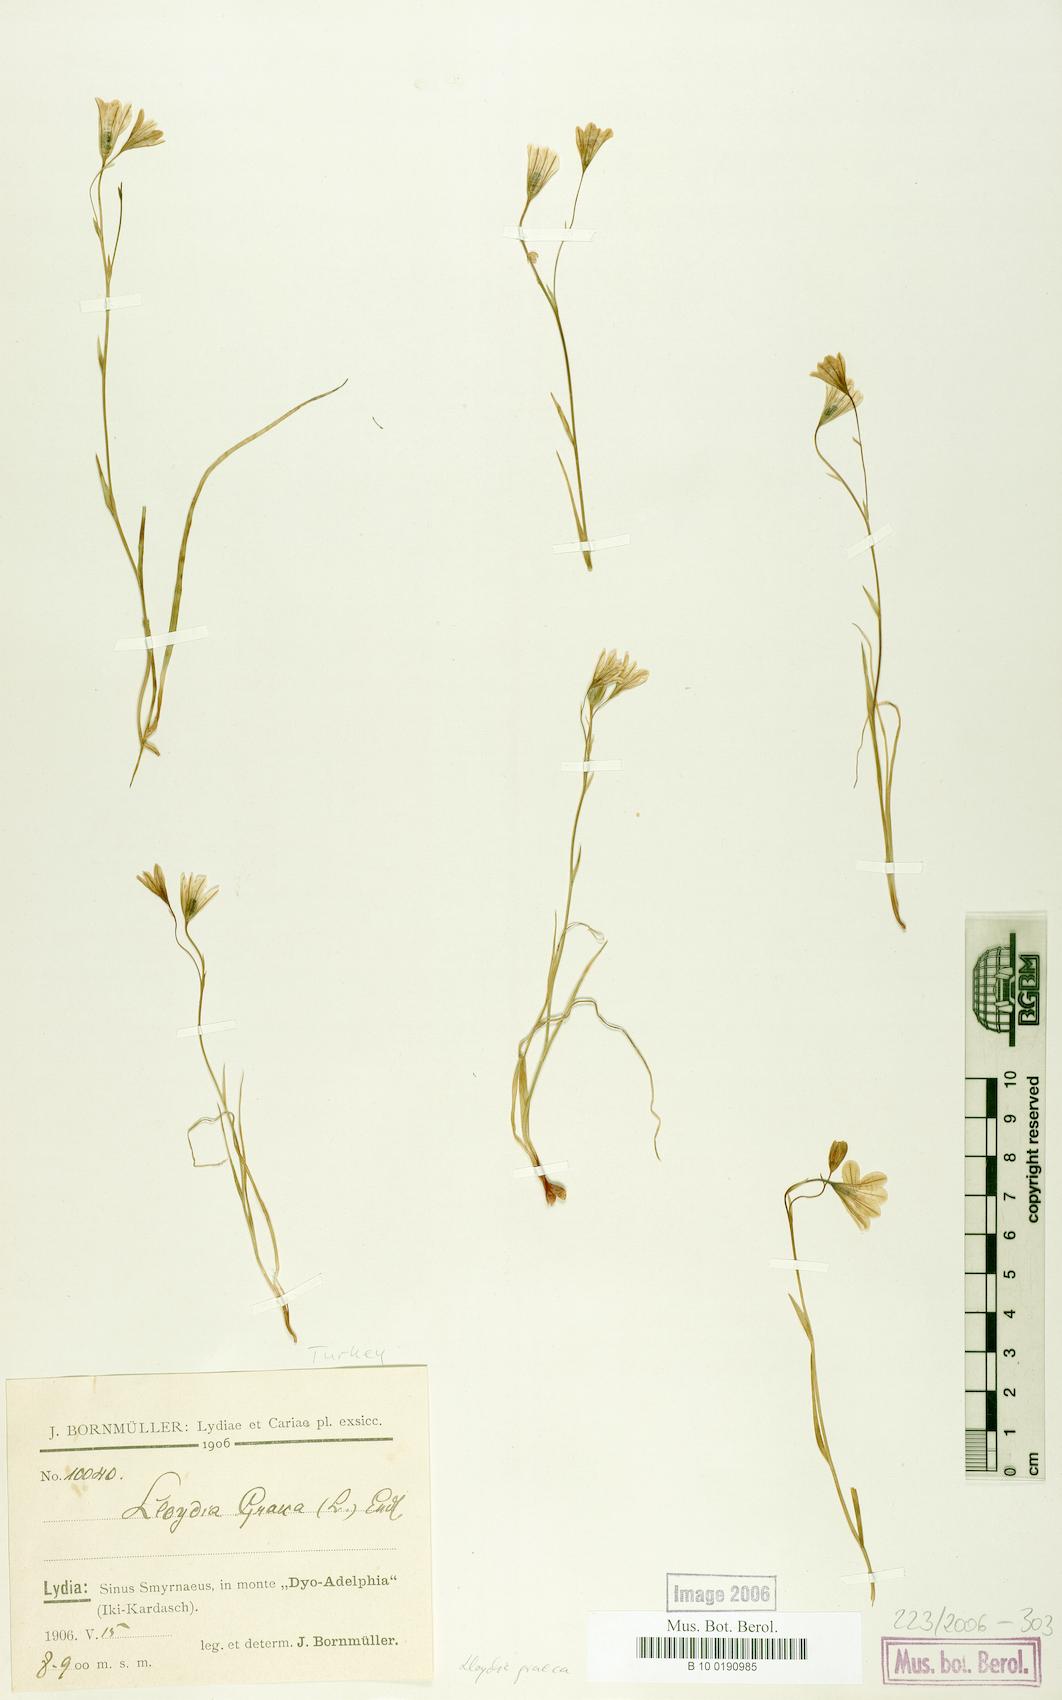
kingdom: Plantae
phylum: Tracheophyta
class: Liliopsida
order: Liliales
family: Liliaceae
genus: Gagea
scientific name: Gagea graeca
